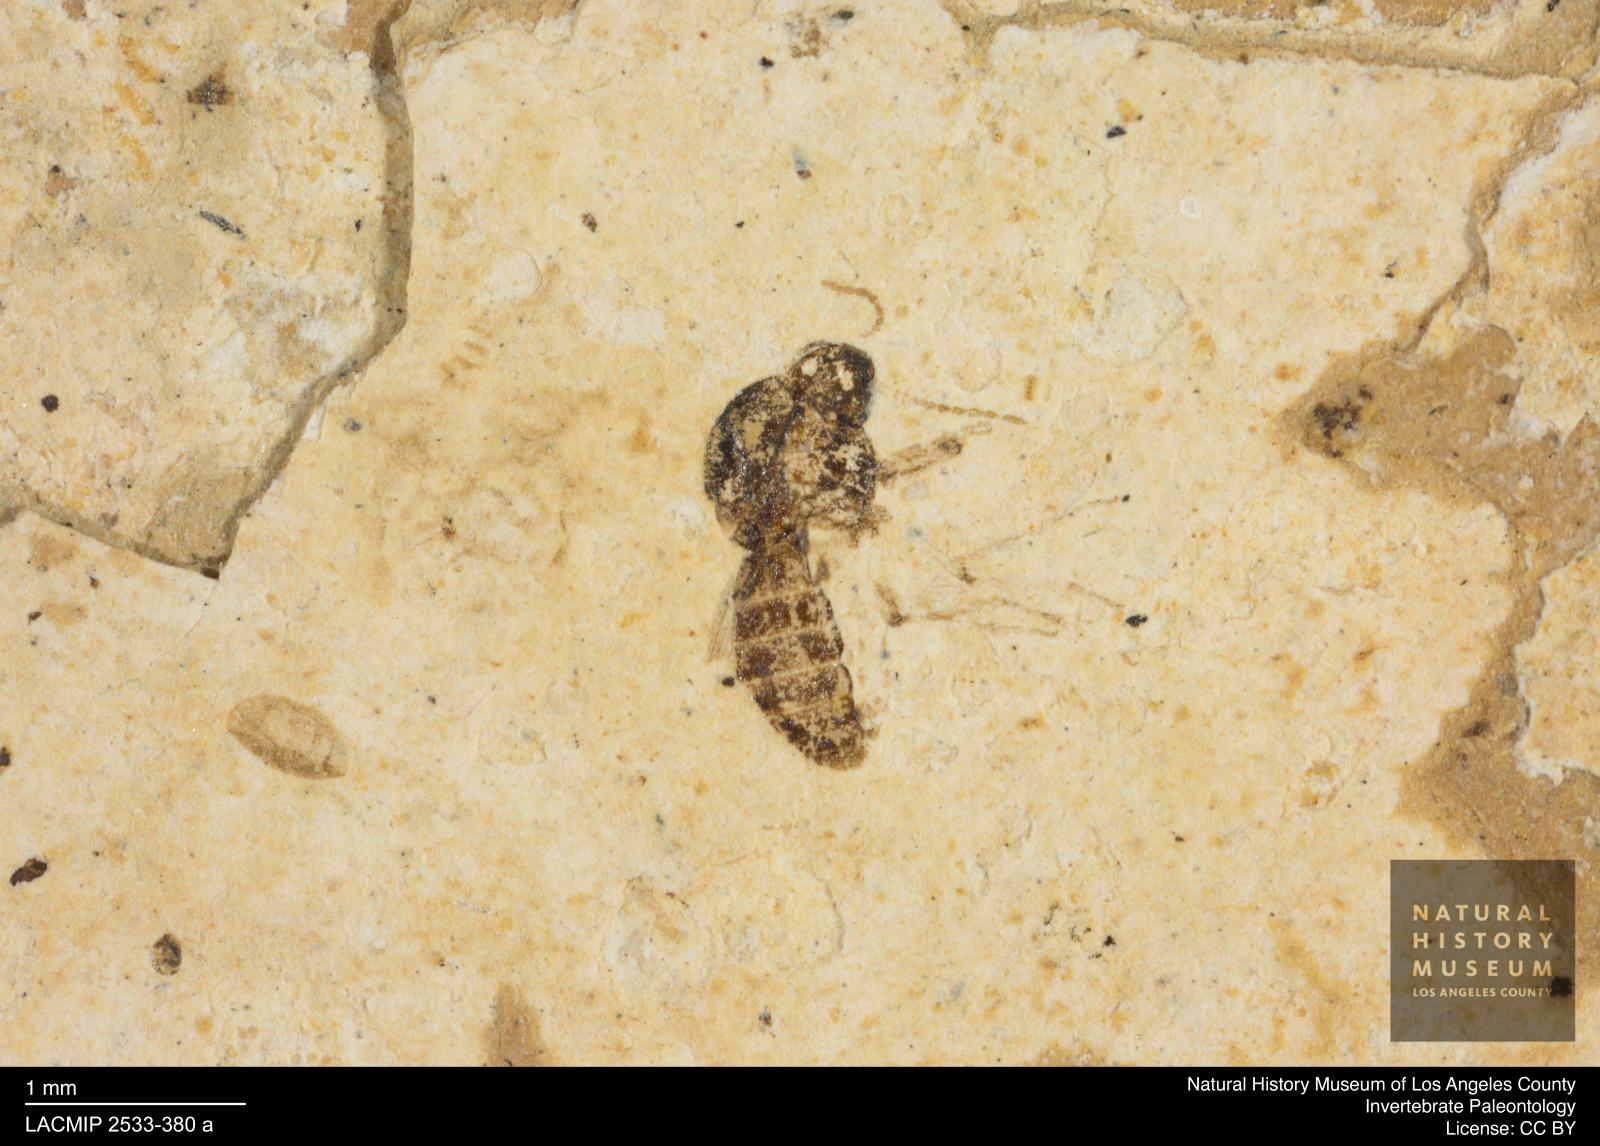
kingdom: Animalia
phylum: Arthropoda
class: Insecta
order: Diptera
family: Ceratopogonidae
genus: Culicoides
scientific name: Culicoides liliputanus
